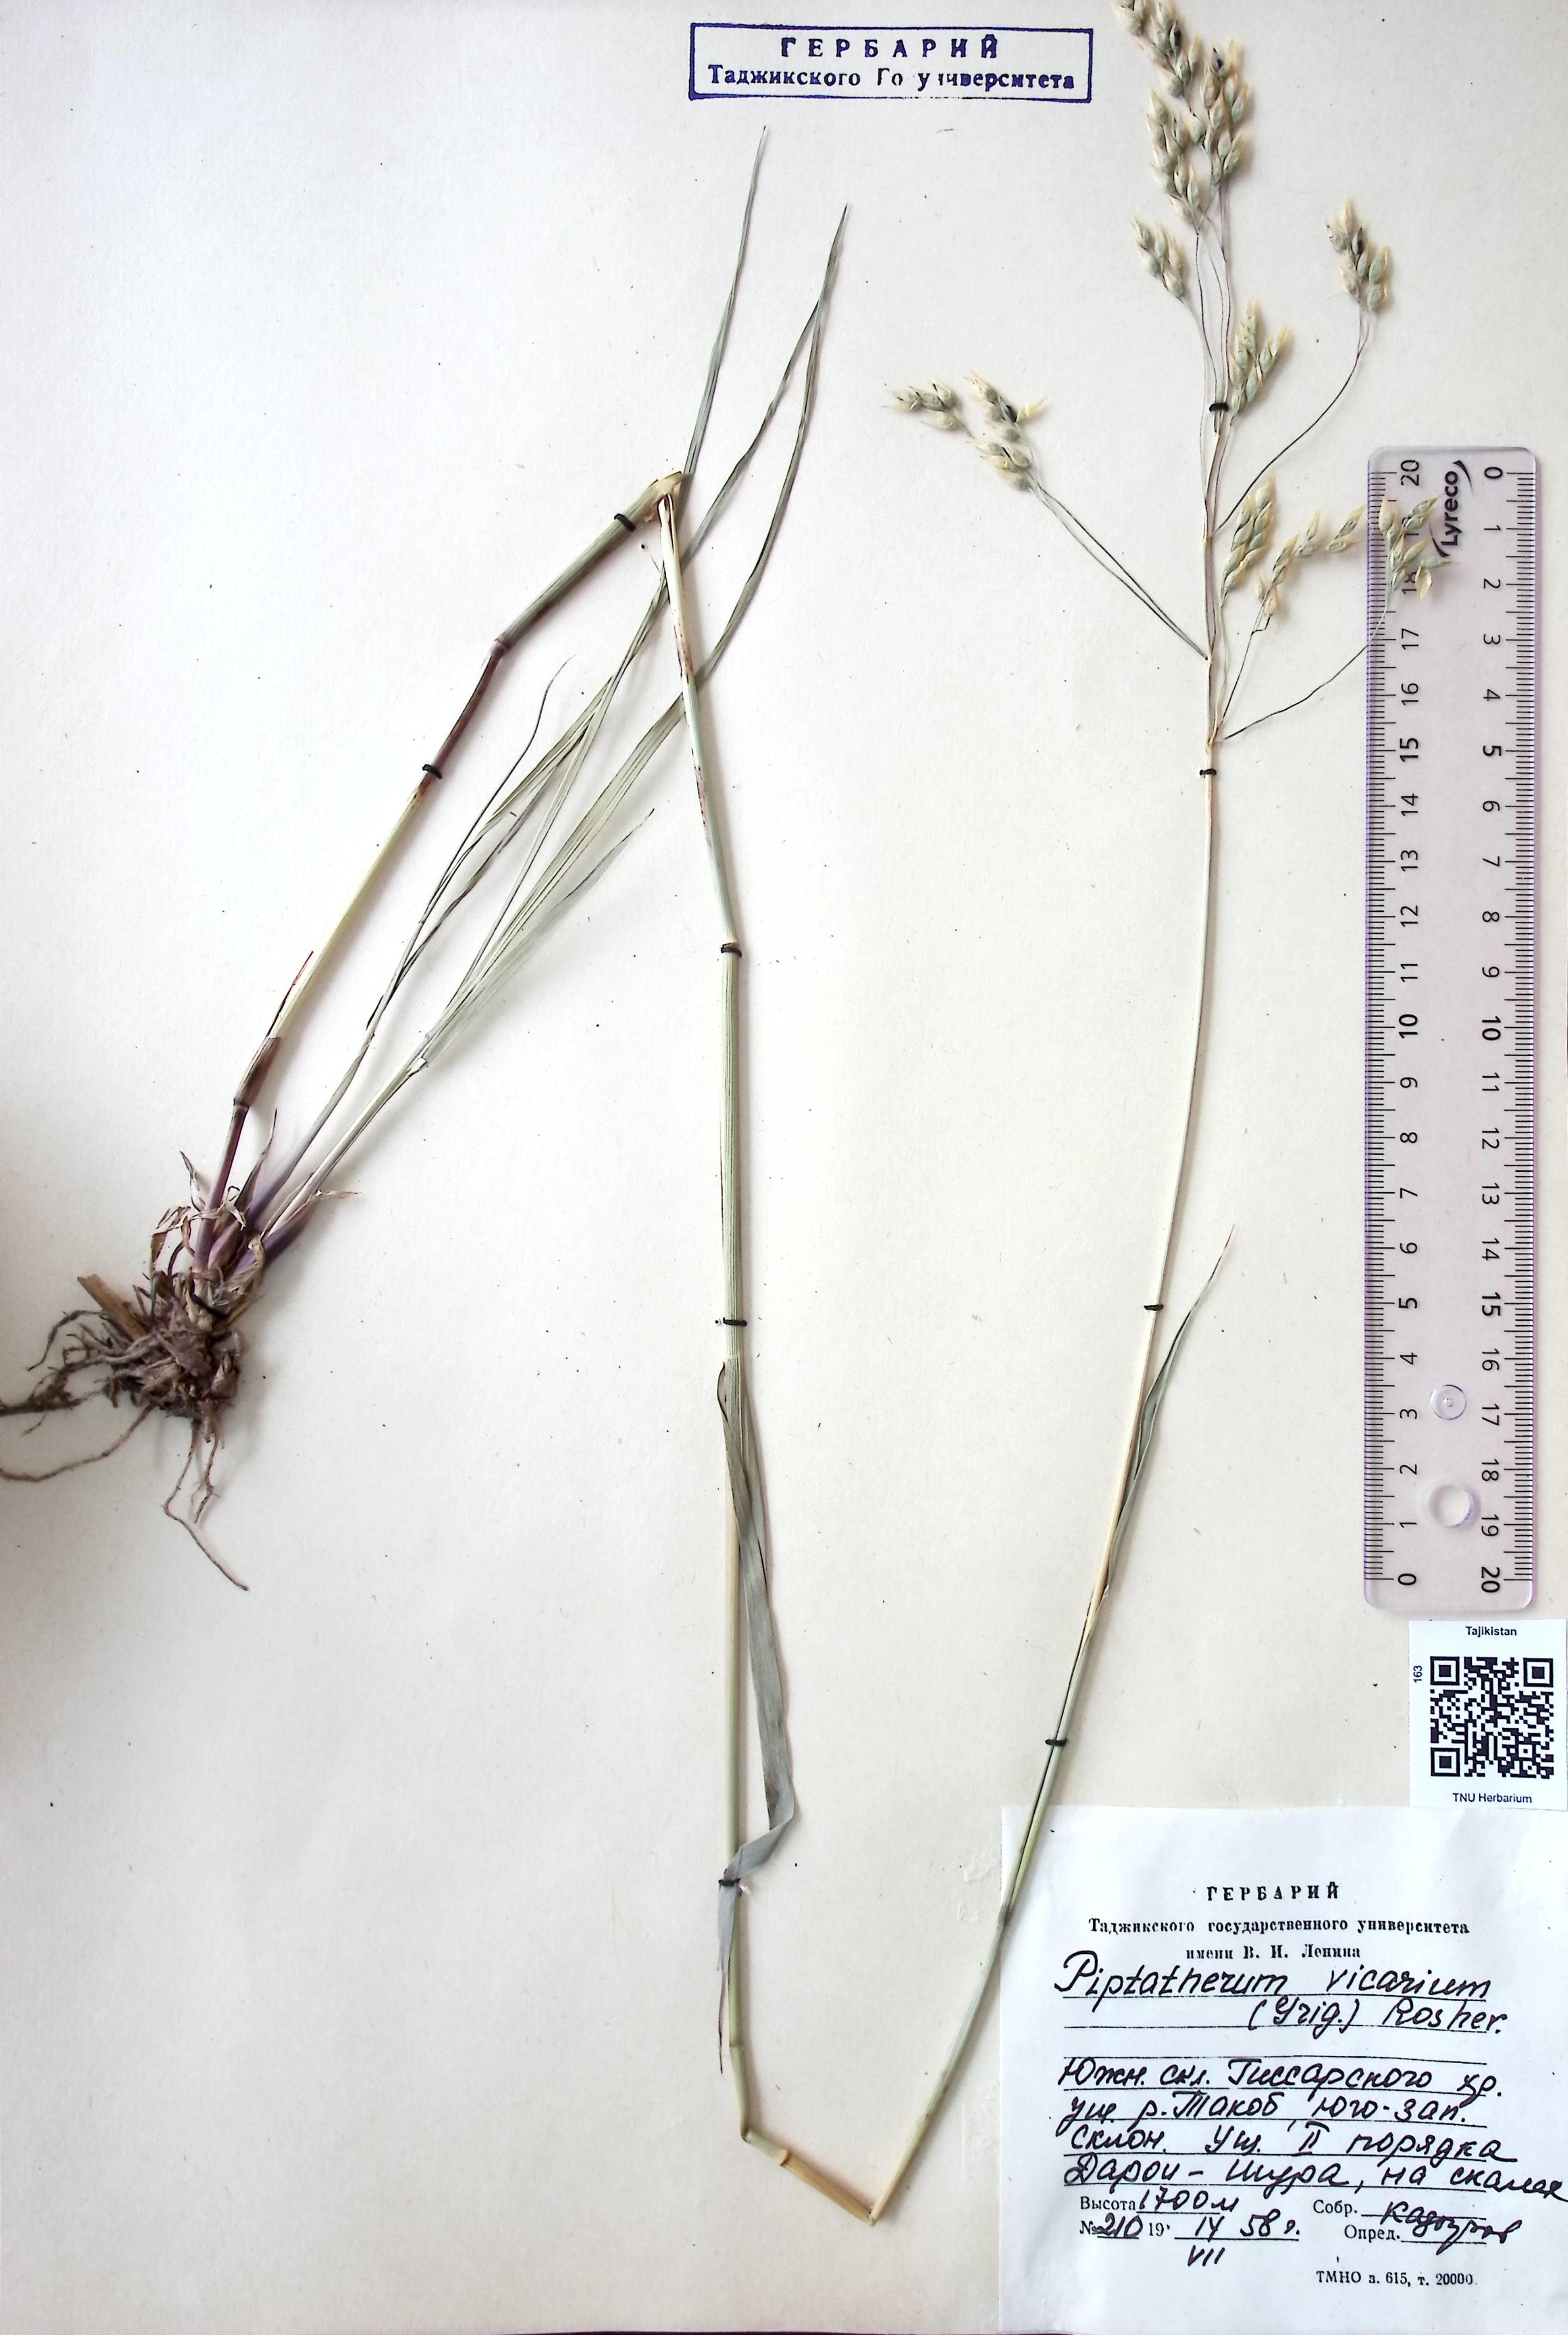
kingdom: Plantae
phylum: Tracheophyta
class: Liliopsida
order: Poales
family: Poaceae
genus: Piptatherum
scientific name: Piptatherum microcarpum
